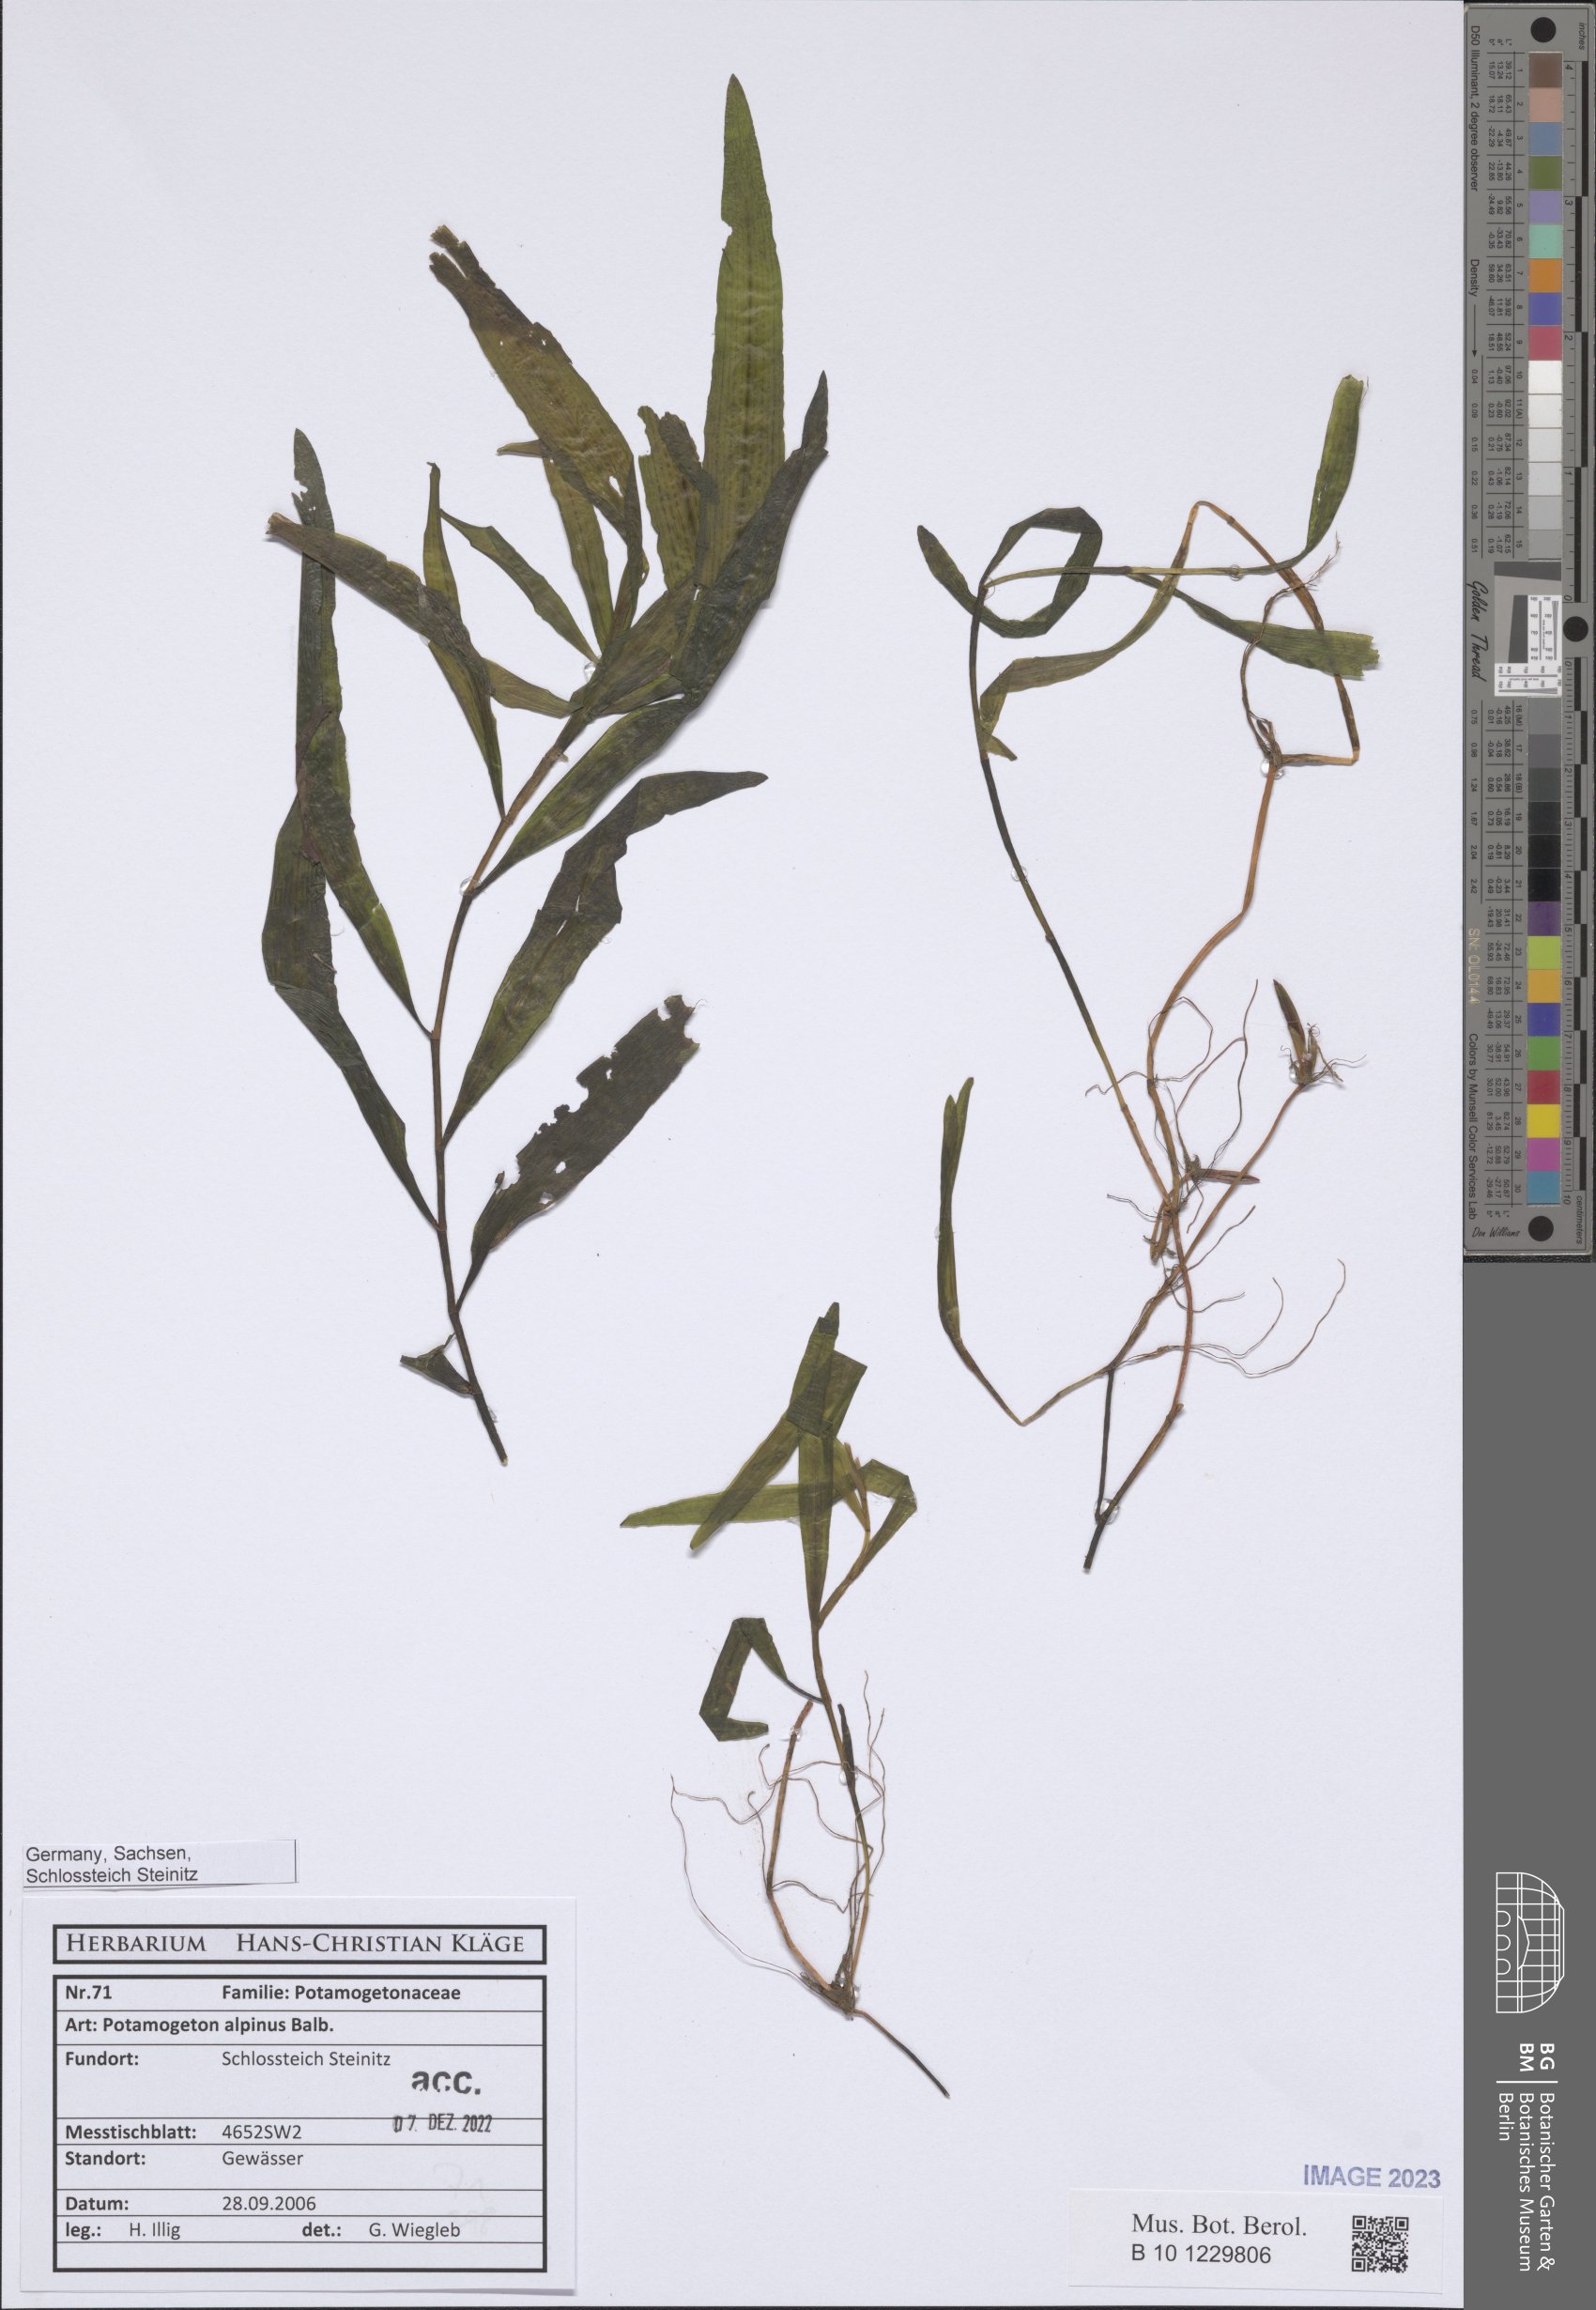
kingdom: Plantae
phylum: Tracheophyta
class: Liliopsida
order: Alismatales
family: Potamogetonaceae
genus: Potamogeton
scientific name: Potamogeton alpinus
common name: Red pondweed
